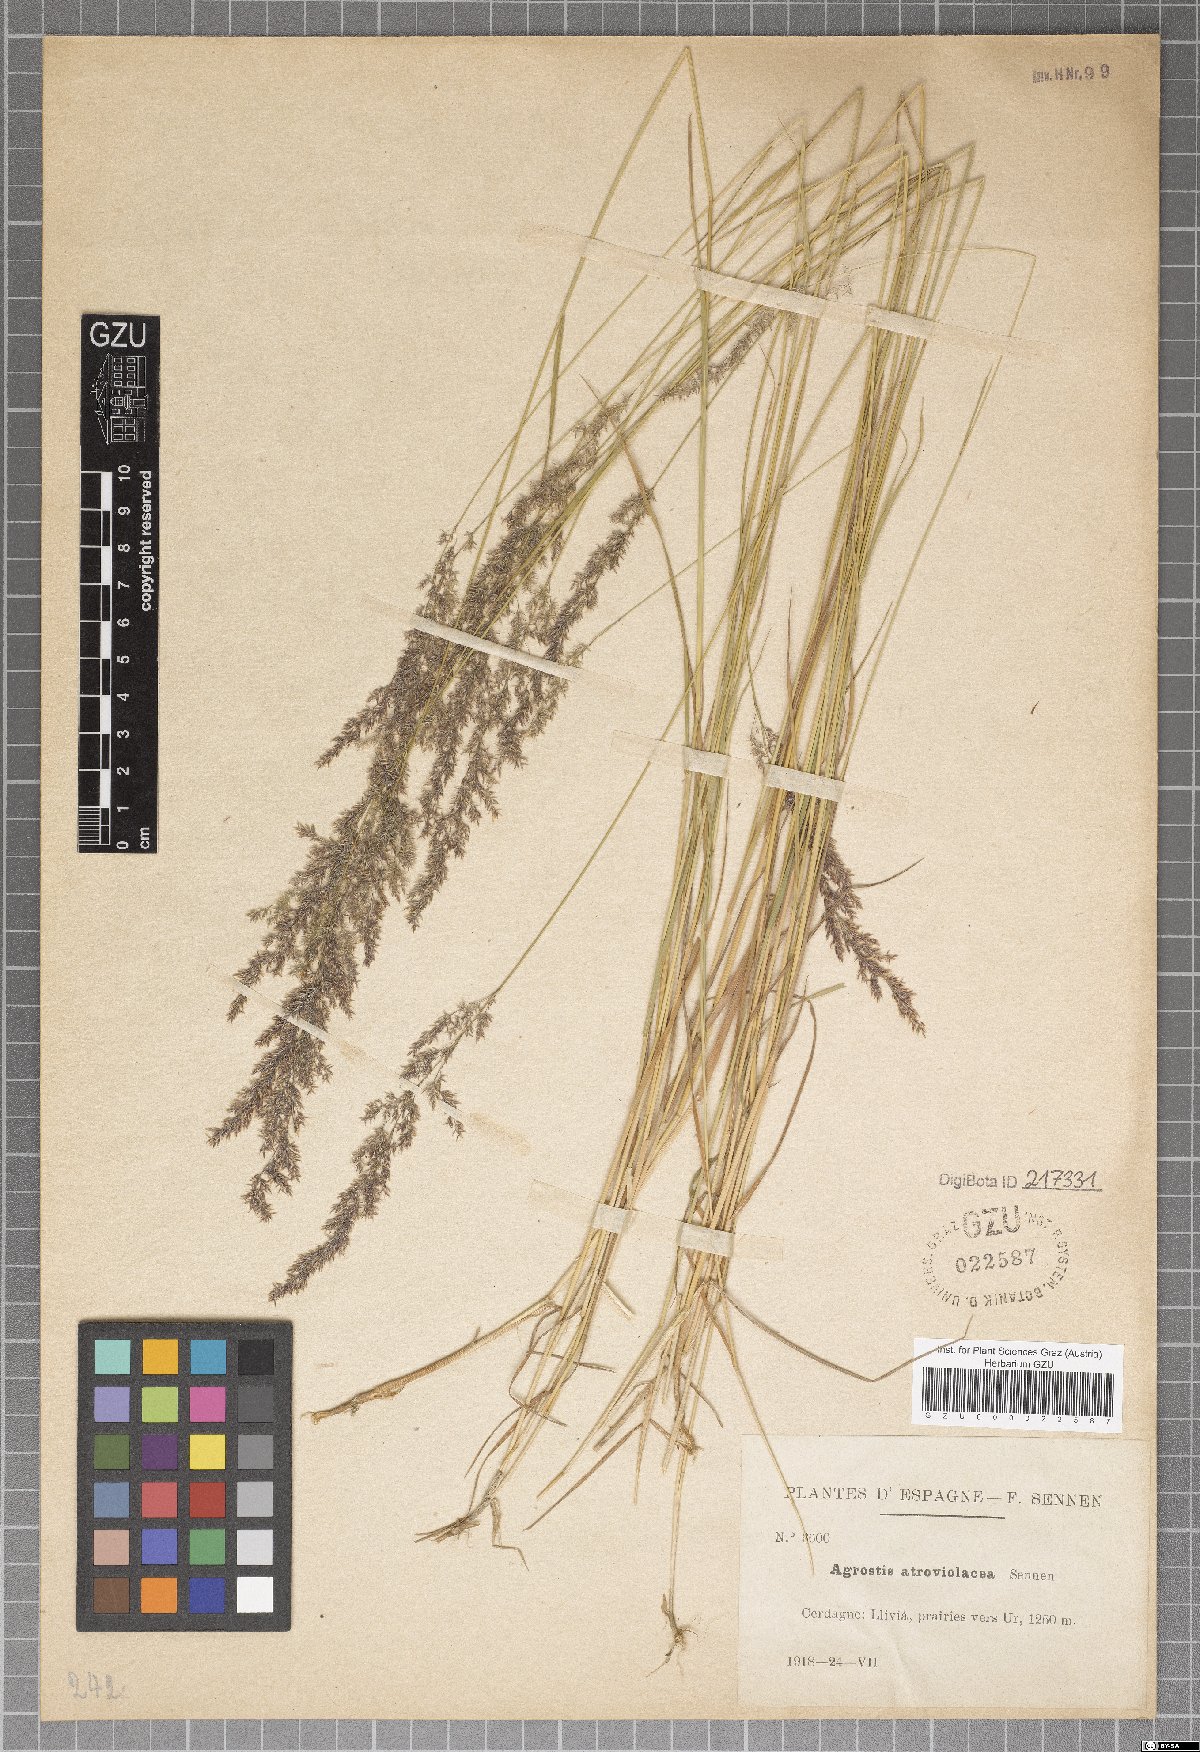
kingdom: Plantae
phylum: Tracheophyta
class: Liliopsida
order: Poales
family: Poaceae
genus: Agrostis
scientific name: Agrostis capillaris
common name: Colonial bentgrass
